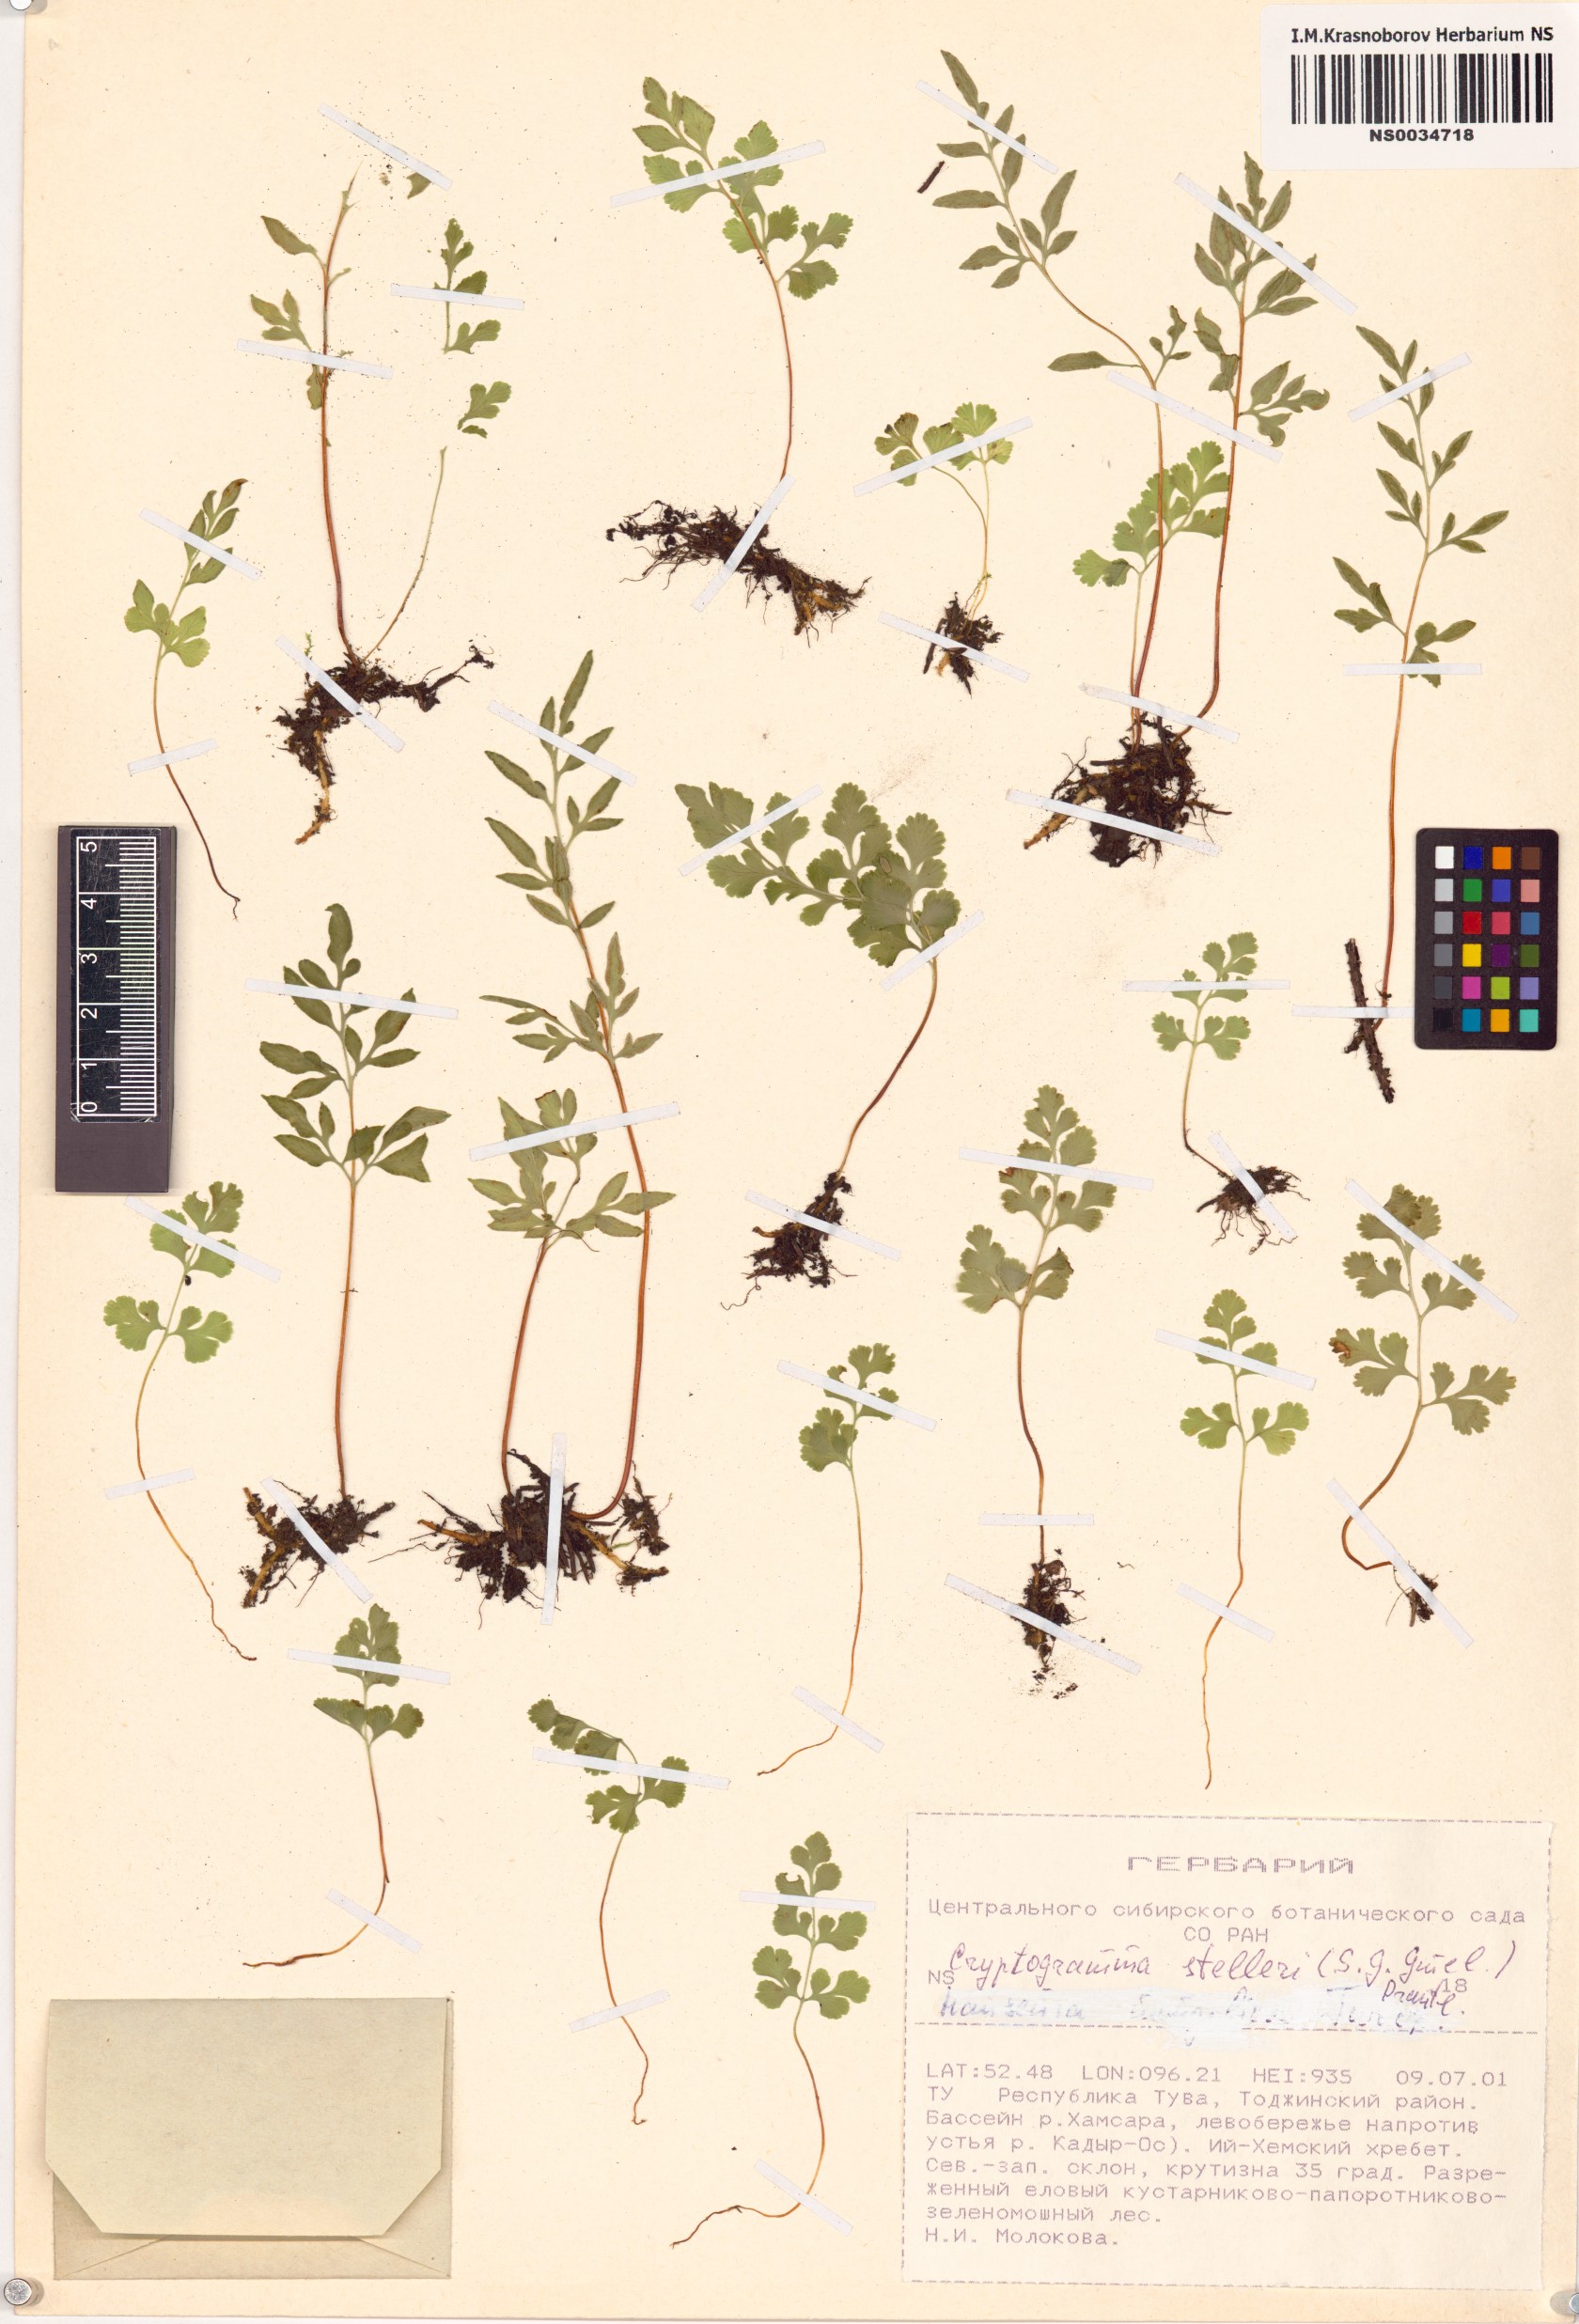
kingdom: Plantae
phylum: Tracheophyta
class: Polypodiopsida
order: Polypodiales
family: Pteridaceae
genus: Cryptogramma
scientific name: Cryptogramma stelleri
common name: Cliff-brake
